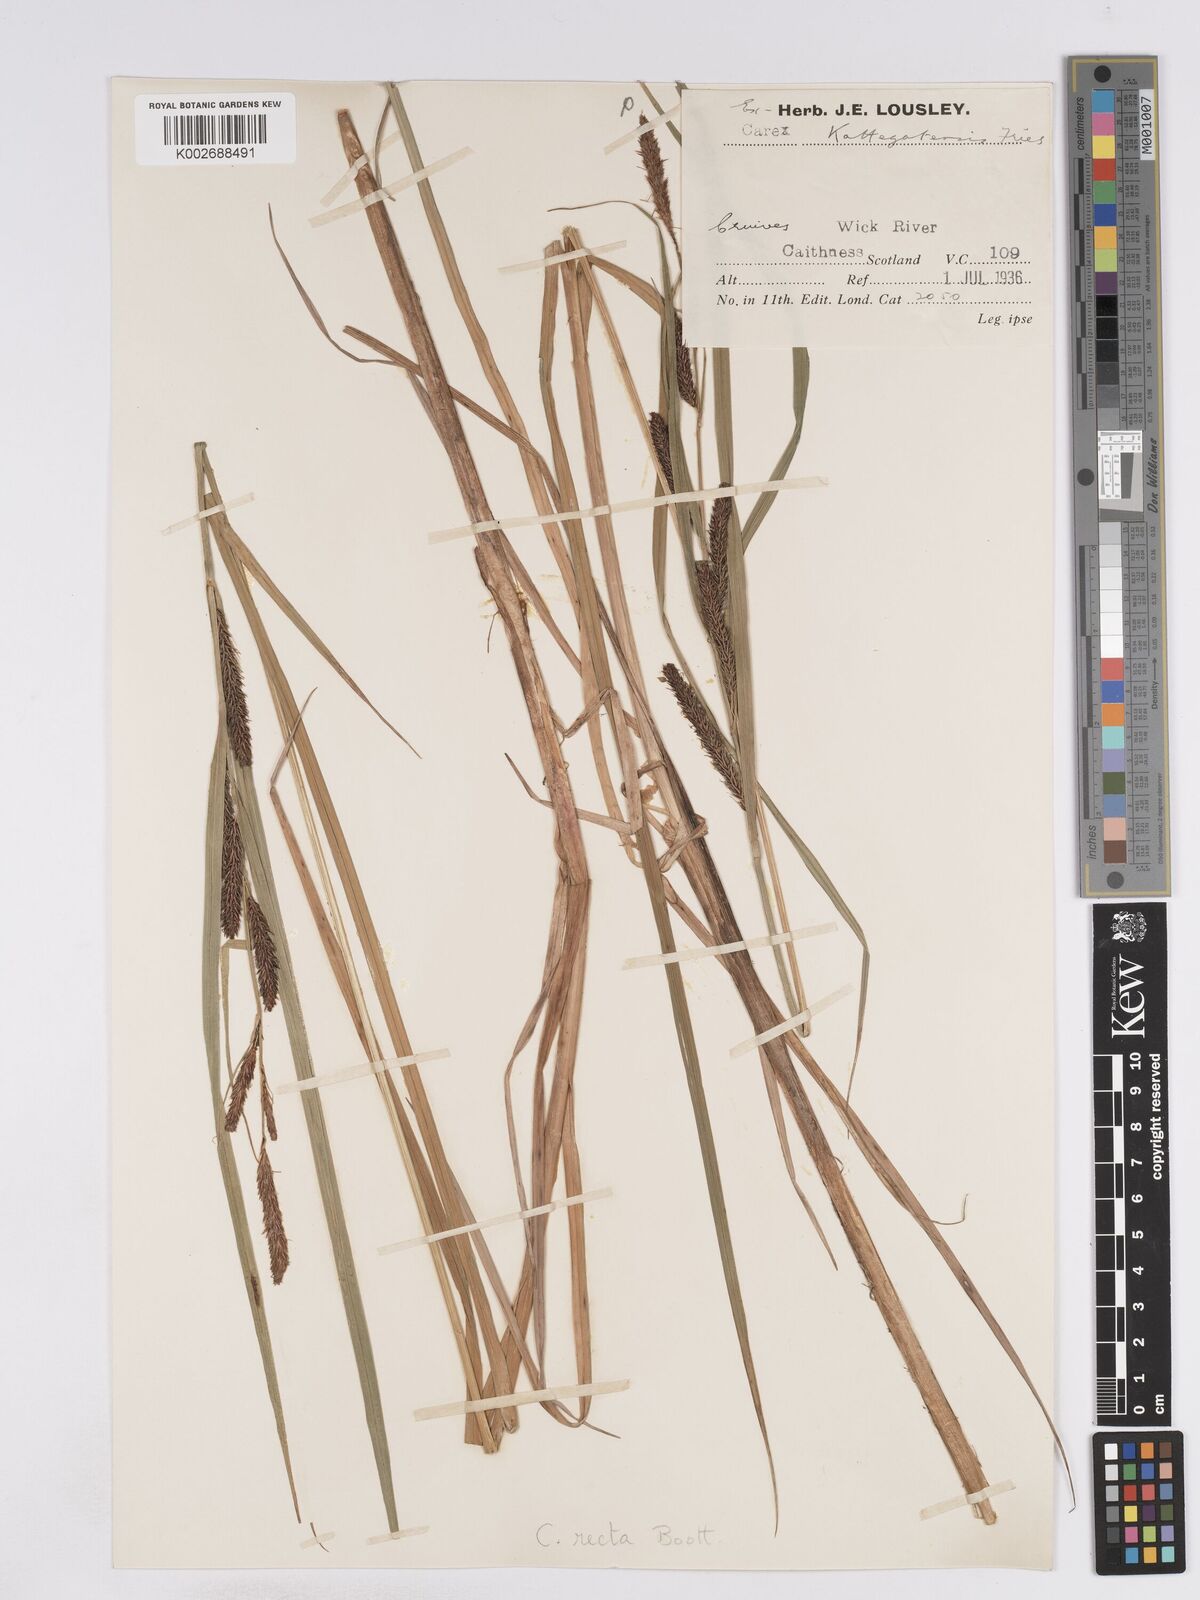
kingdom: Plantae
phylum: Tracheophyta
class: Liliopsida
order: Poales
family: Cyperaceae
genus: Carex
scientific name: Carex recta
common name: Estuarine sedge
